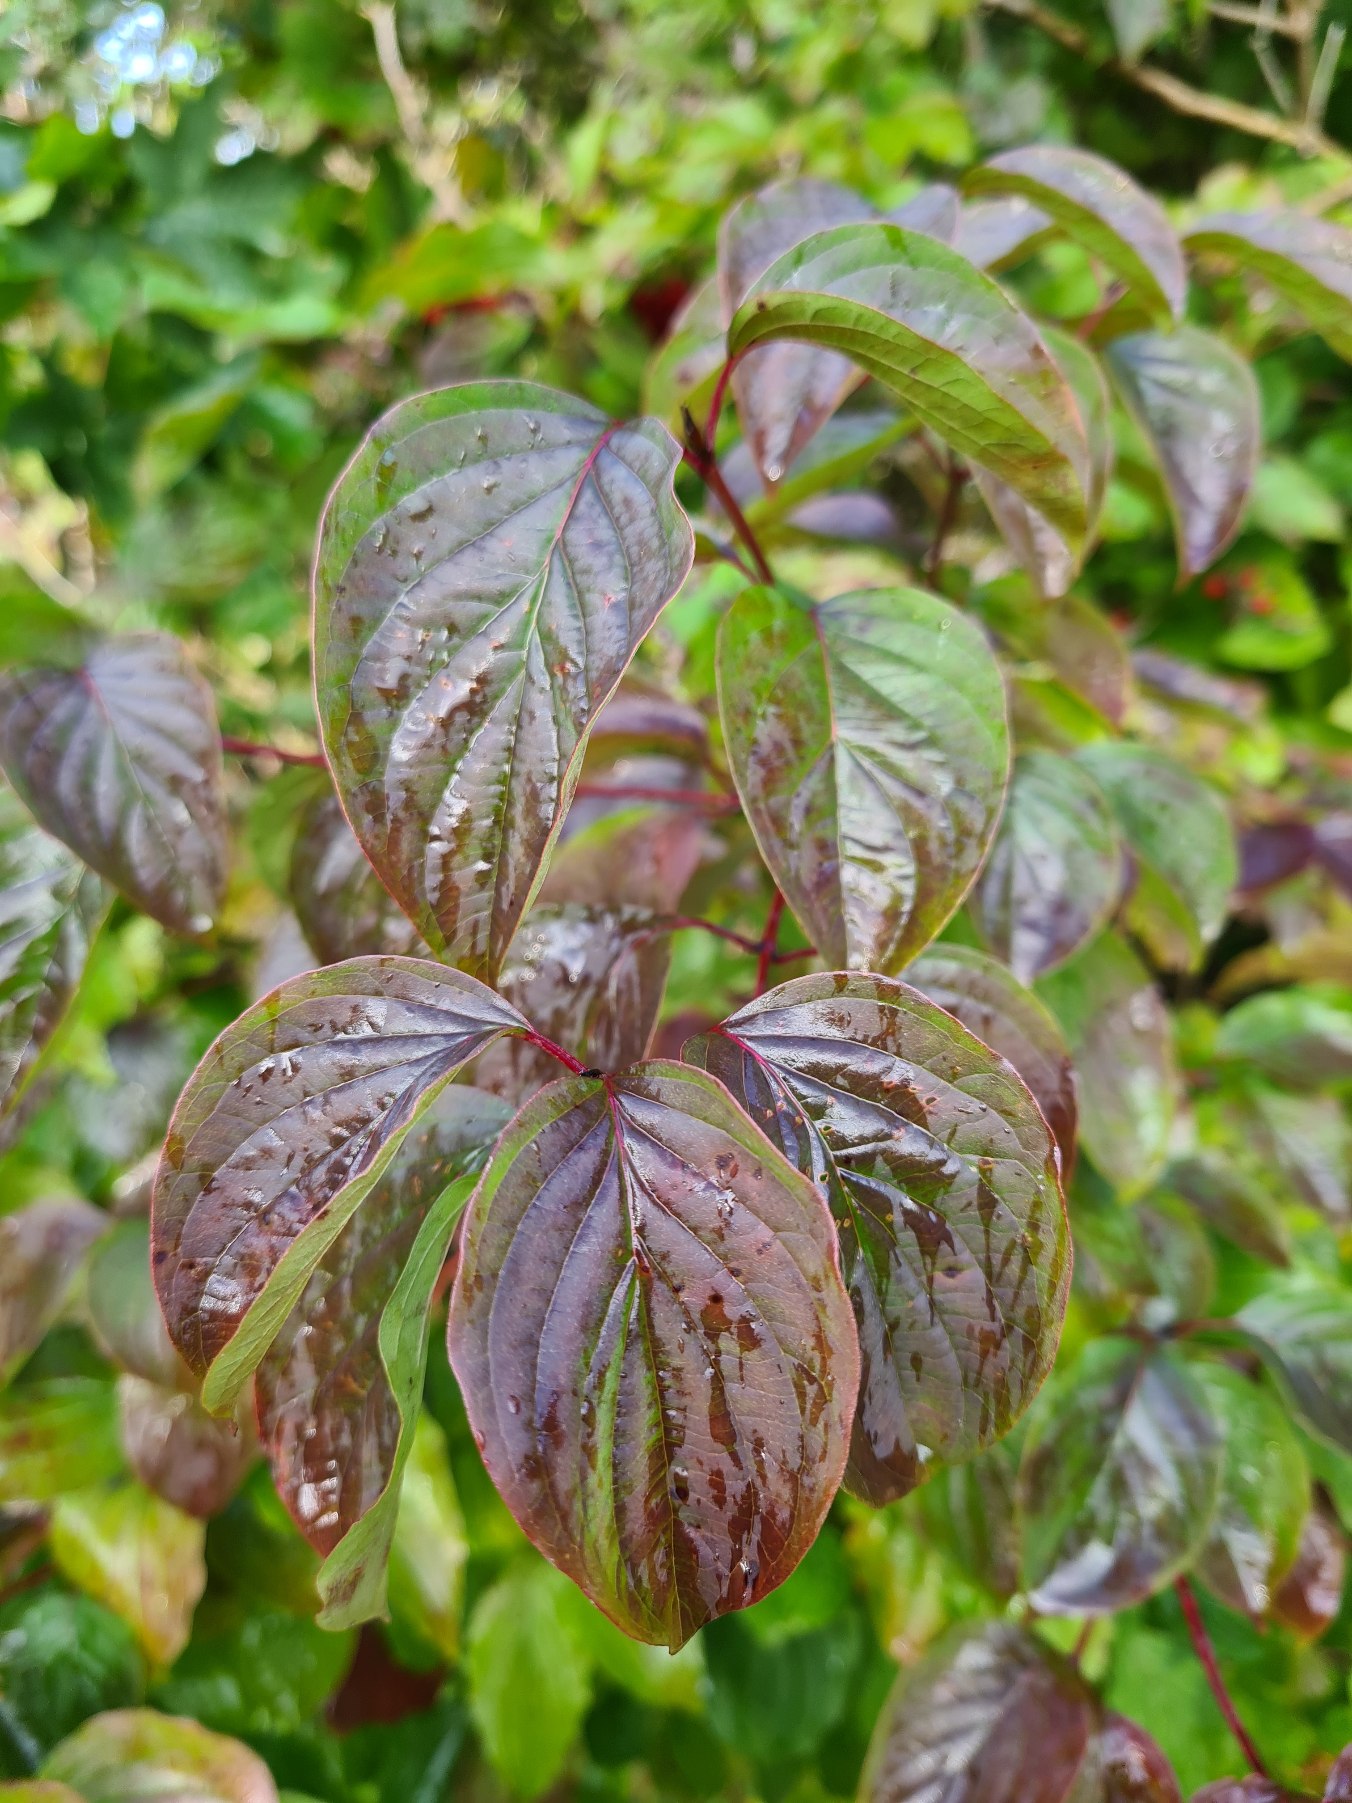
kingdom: Plantae
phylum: Tracheophyta
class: Magnoliopsida
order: Cornales
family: Cornaceae
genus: Cornus
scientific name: Cornus sanguinea
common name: Rød kornel
